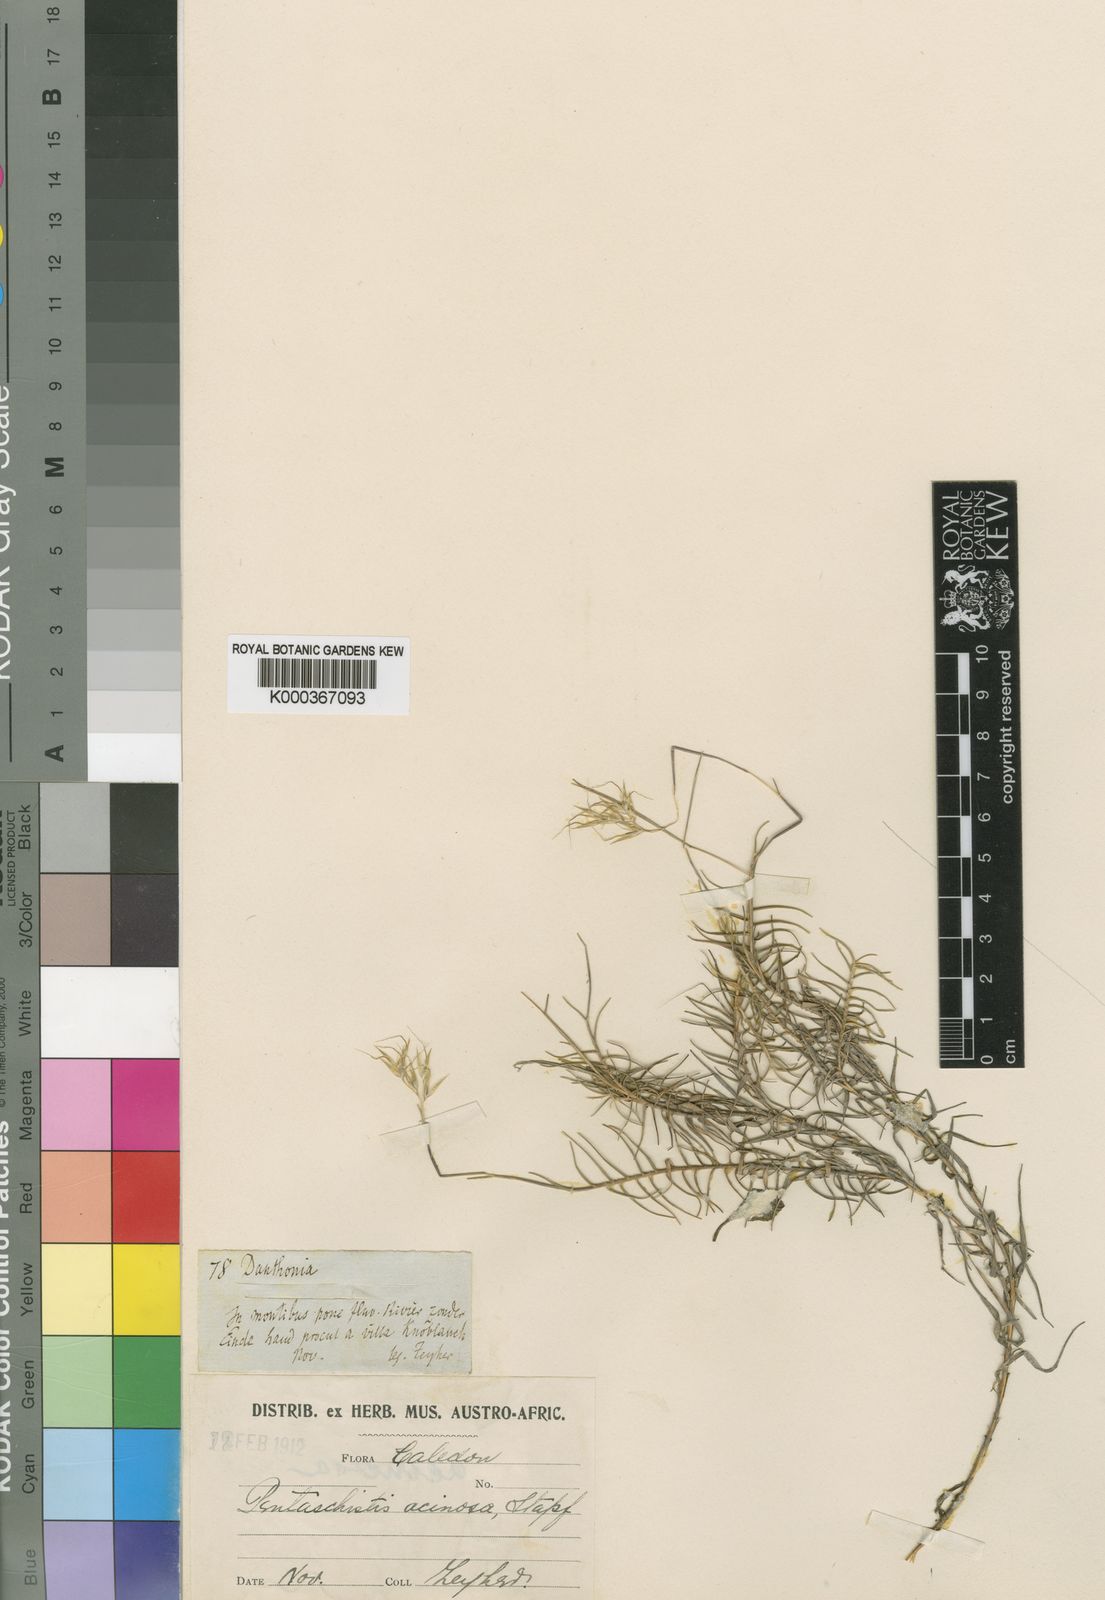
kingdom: Plantae
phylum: Tracheophyta
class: Liliopsida
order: Poales
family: Poaceae
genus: Pentameris
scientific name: Pentameris acinosa
